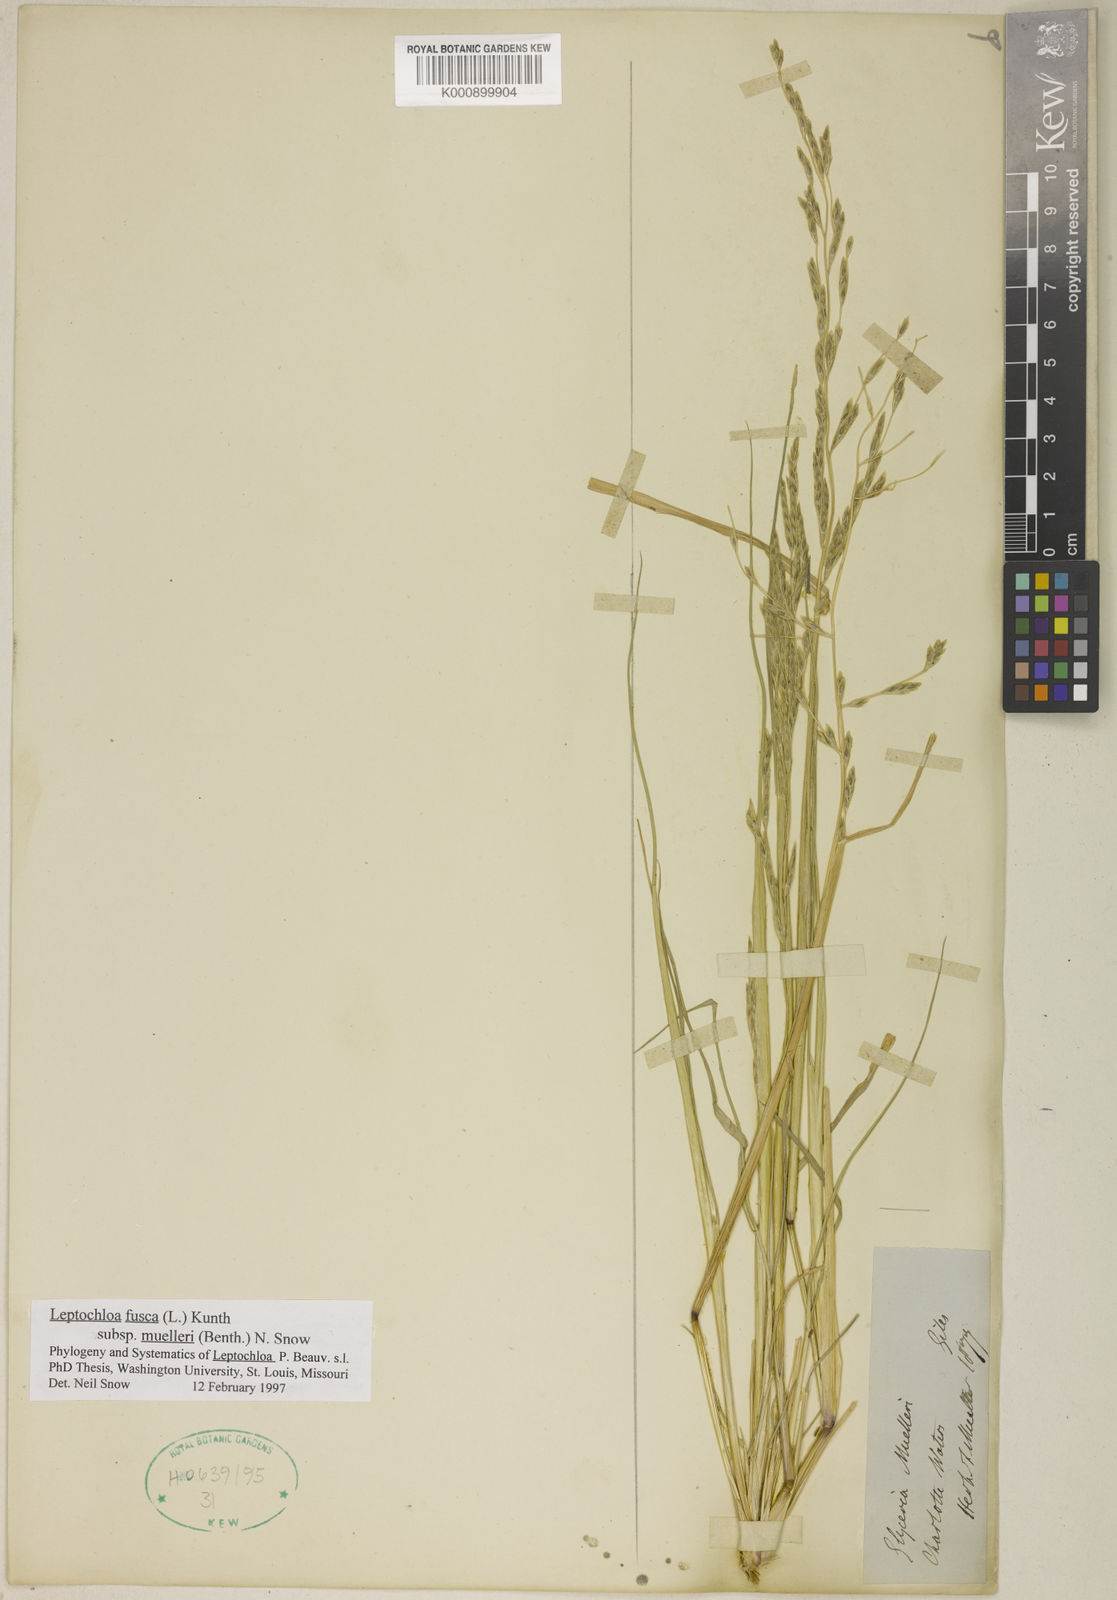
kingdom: Plantae
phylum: Tracheophyta
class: Liliopsida
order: Poales
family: Poaceae
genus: Diplachne
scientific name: Diplachne fusca
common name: Brown beetle grass
